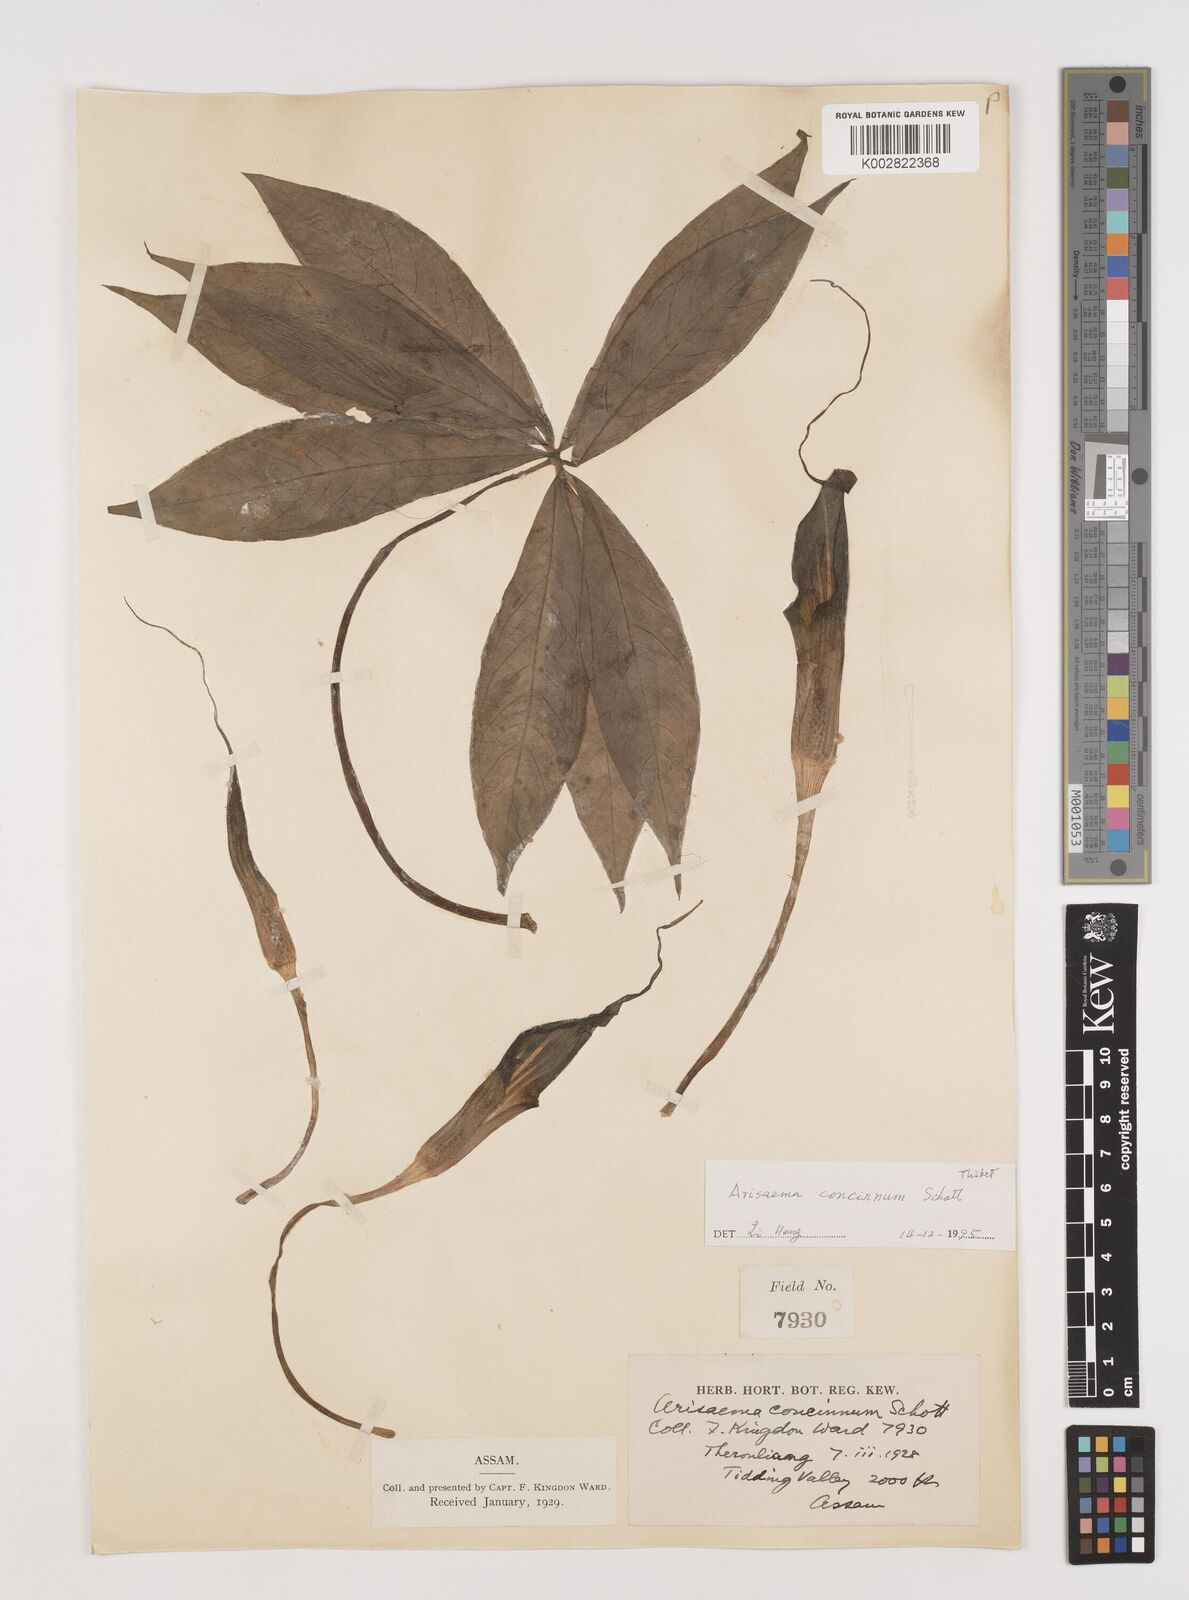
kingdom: Plantae
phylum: Tracheophyta
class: Liliopsida
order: Alismatales
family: Araceae
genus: Arisaema
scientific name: Arisaema concinnum
